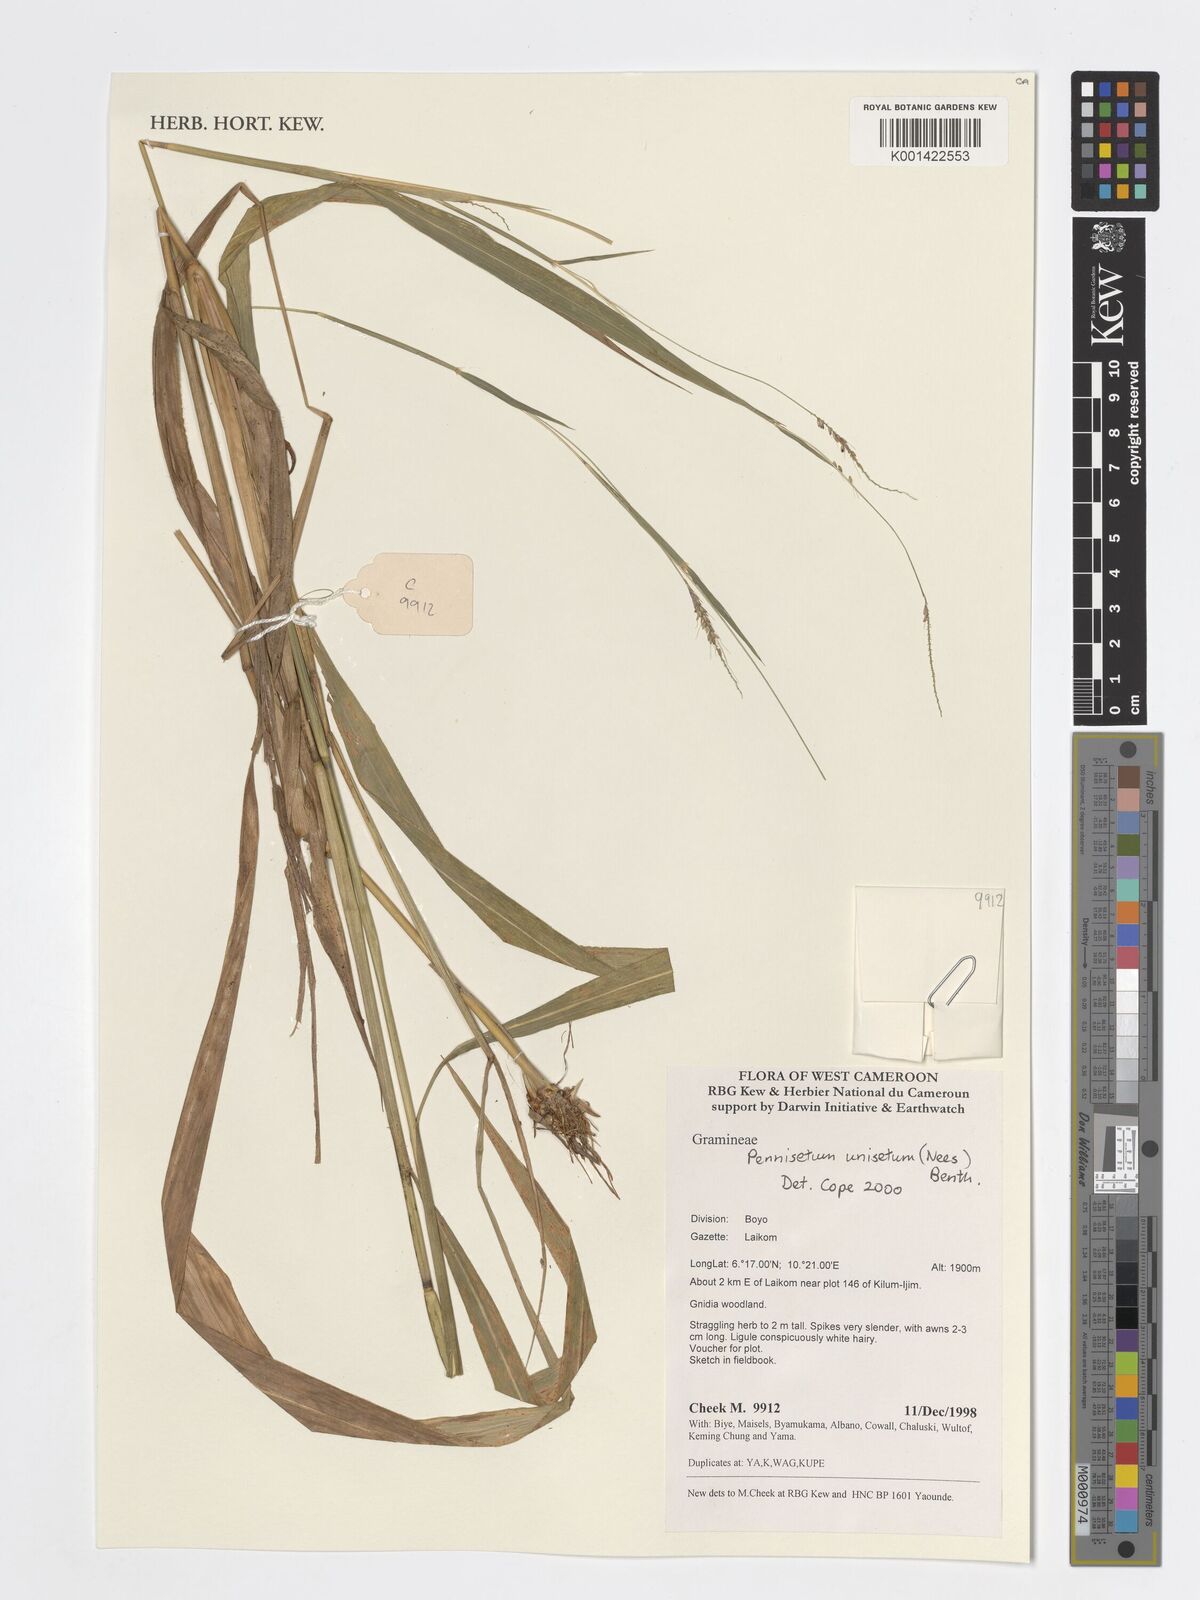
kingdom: Plantae
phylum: Tracheophyta
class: Liliopsida
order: Poales
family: Poaceae
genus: Cenchrus
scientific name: Cenchrus unisetus
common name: Natal grass
